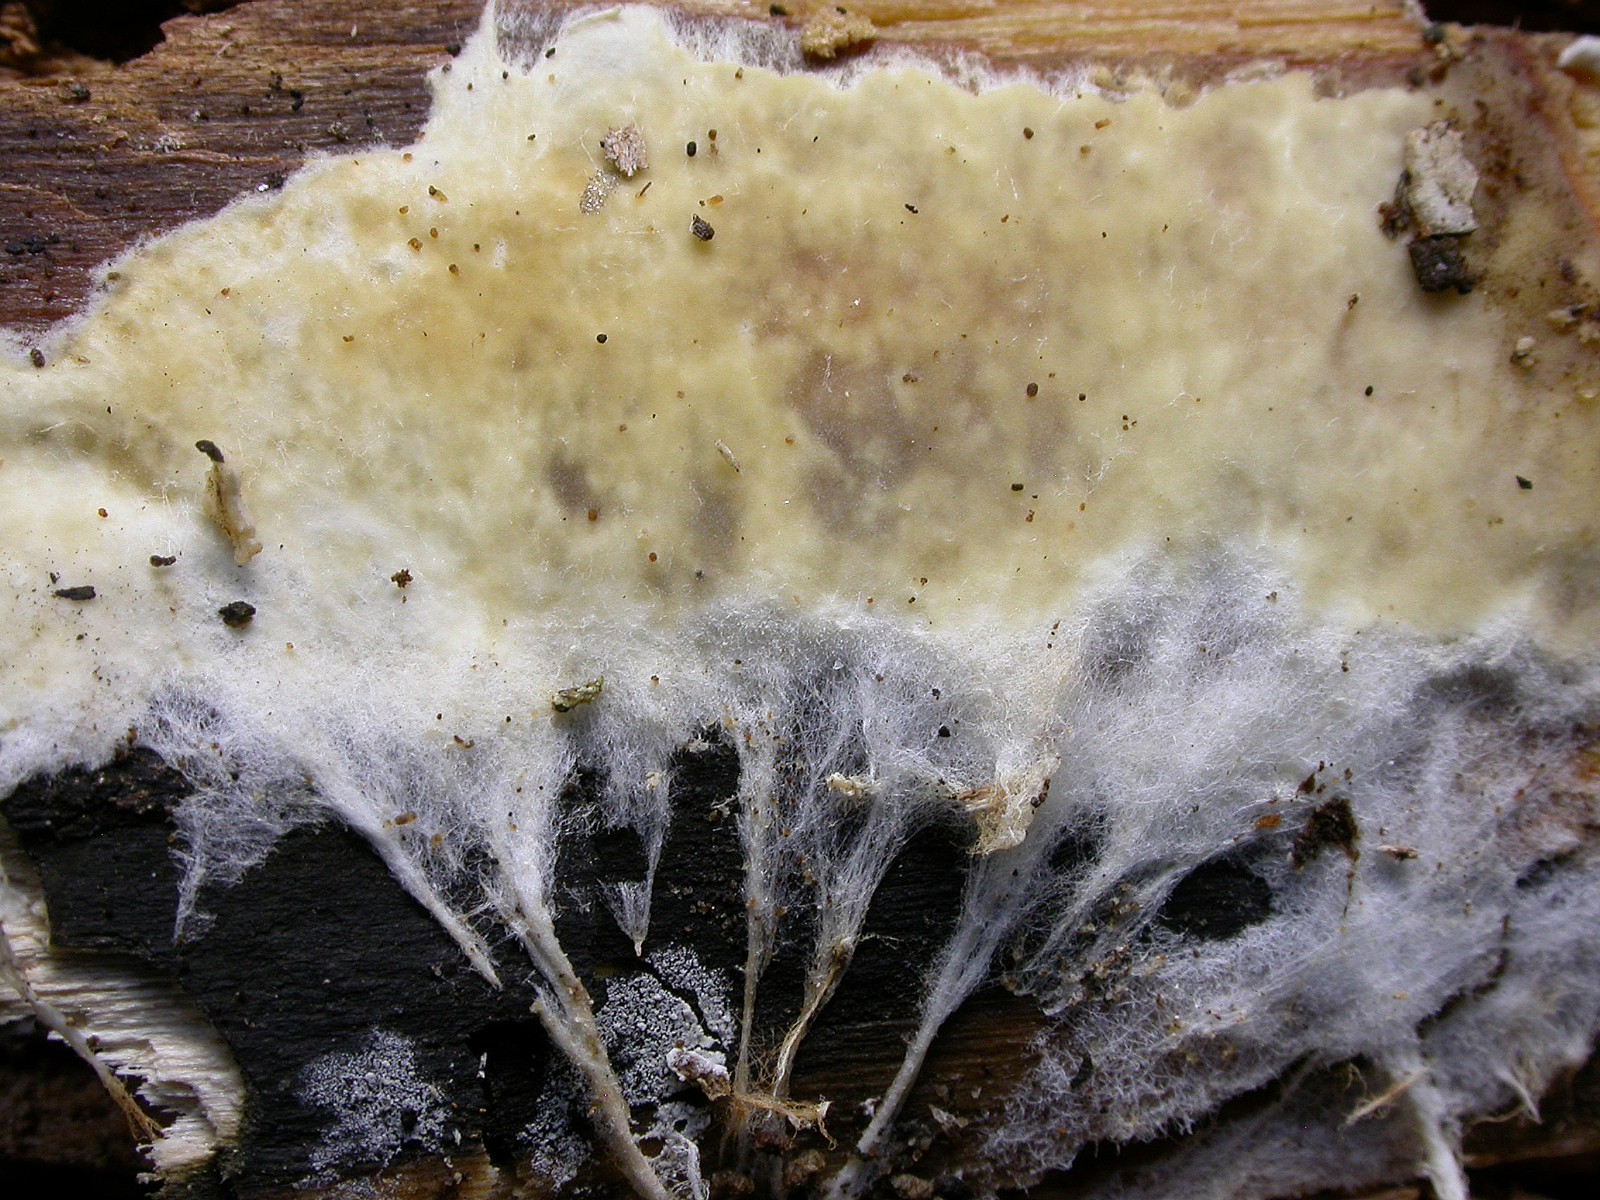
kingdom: Fungi
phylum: Basidiomycota
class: Agaricomycetes
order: Polyporales
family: Phanerochaetaceae
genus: Phanerochaete
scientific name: Phanerochaete sordida
